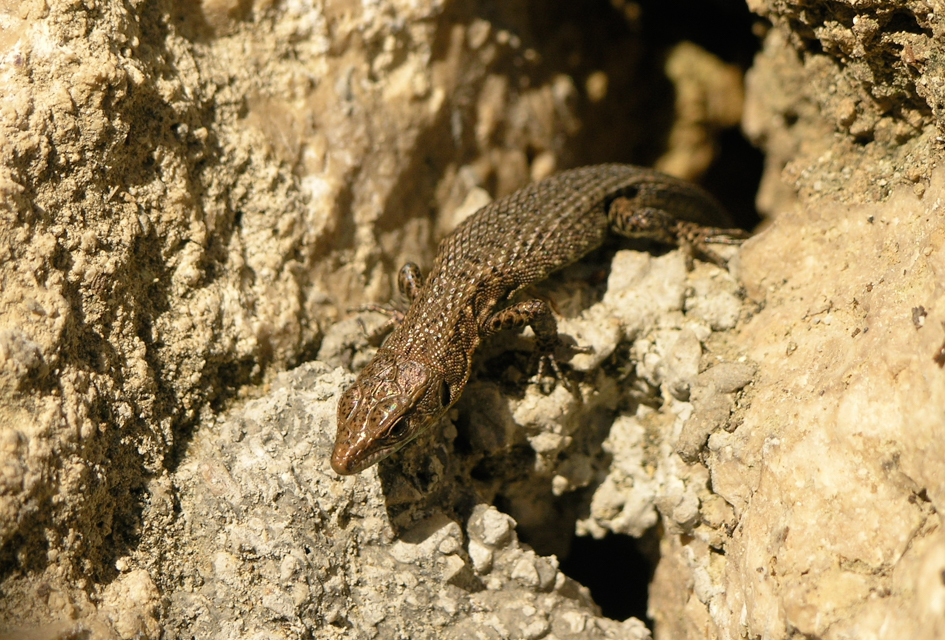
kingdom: Animalia
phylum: Chordata
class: Squamata
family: Lacertidae
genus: Algyroides
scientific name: Algyroides moreoticus
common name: Greek algyroides
